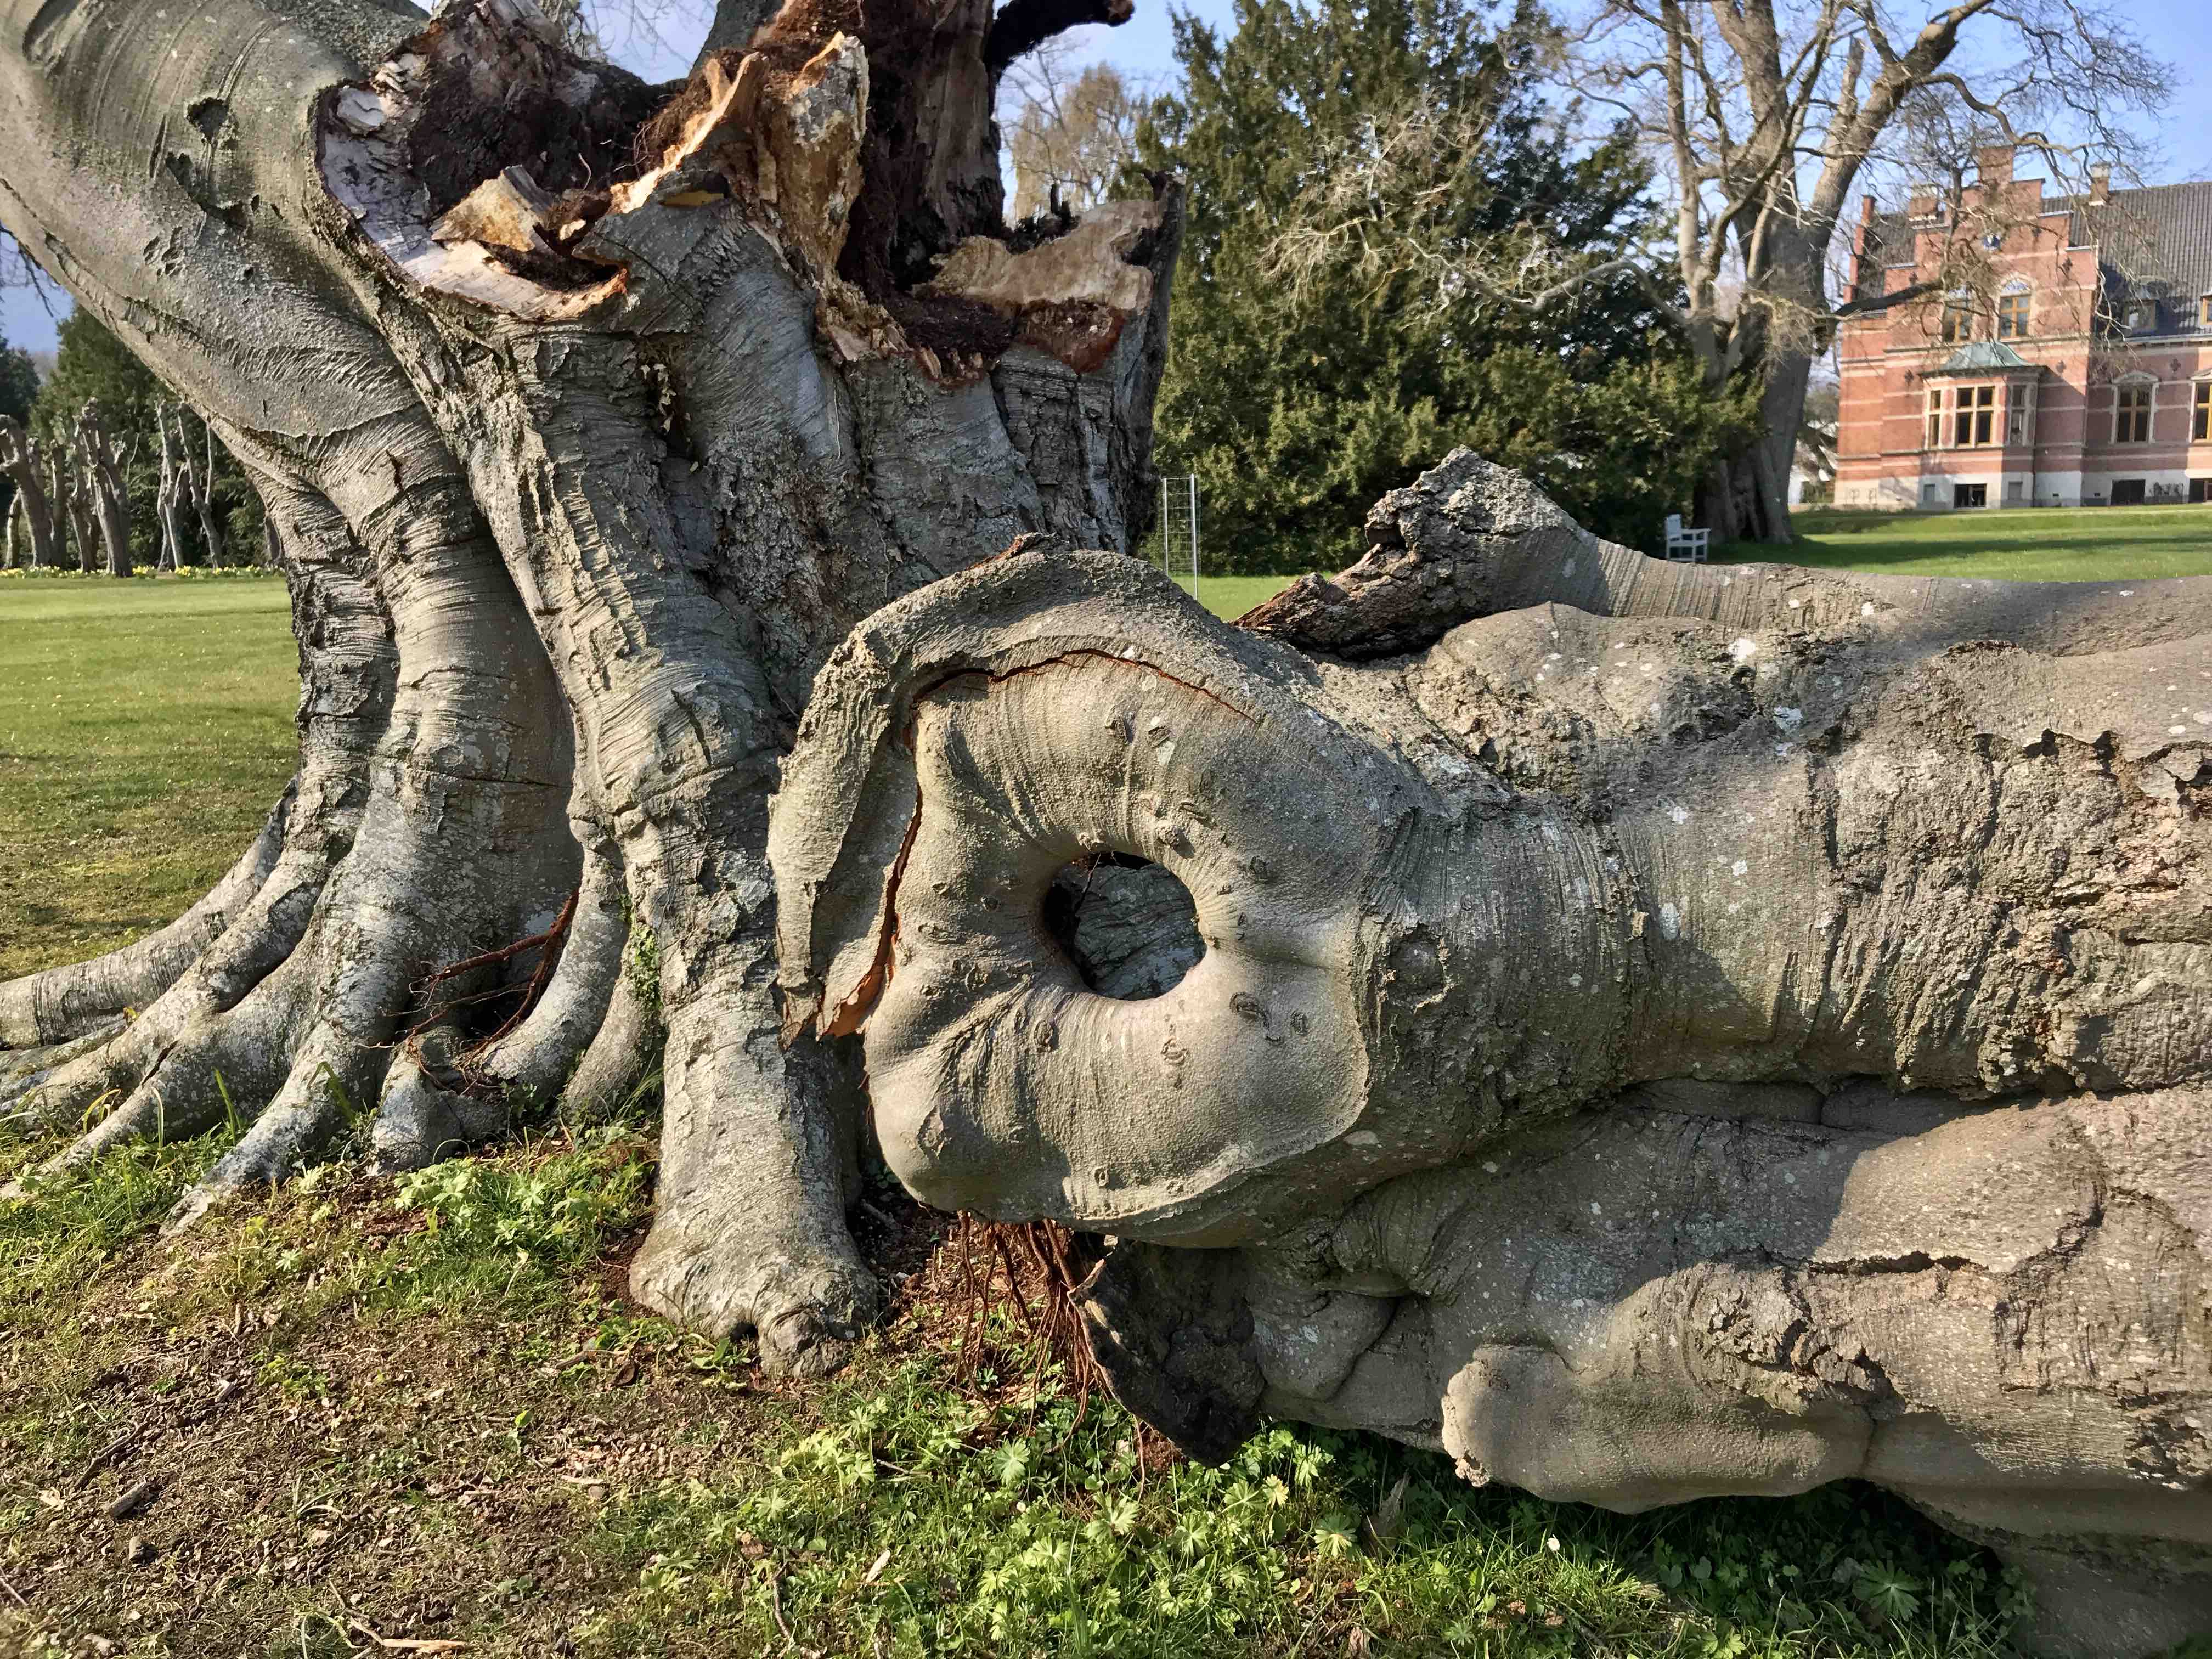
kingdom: Fungi
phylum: Basidiomycota
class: Agaricomycetes
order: Polyporales
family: Polyporaceae
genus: Ganoderma
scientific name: Ganoderma pfeifferi
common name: kobberrød lakporesvamp
